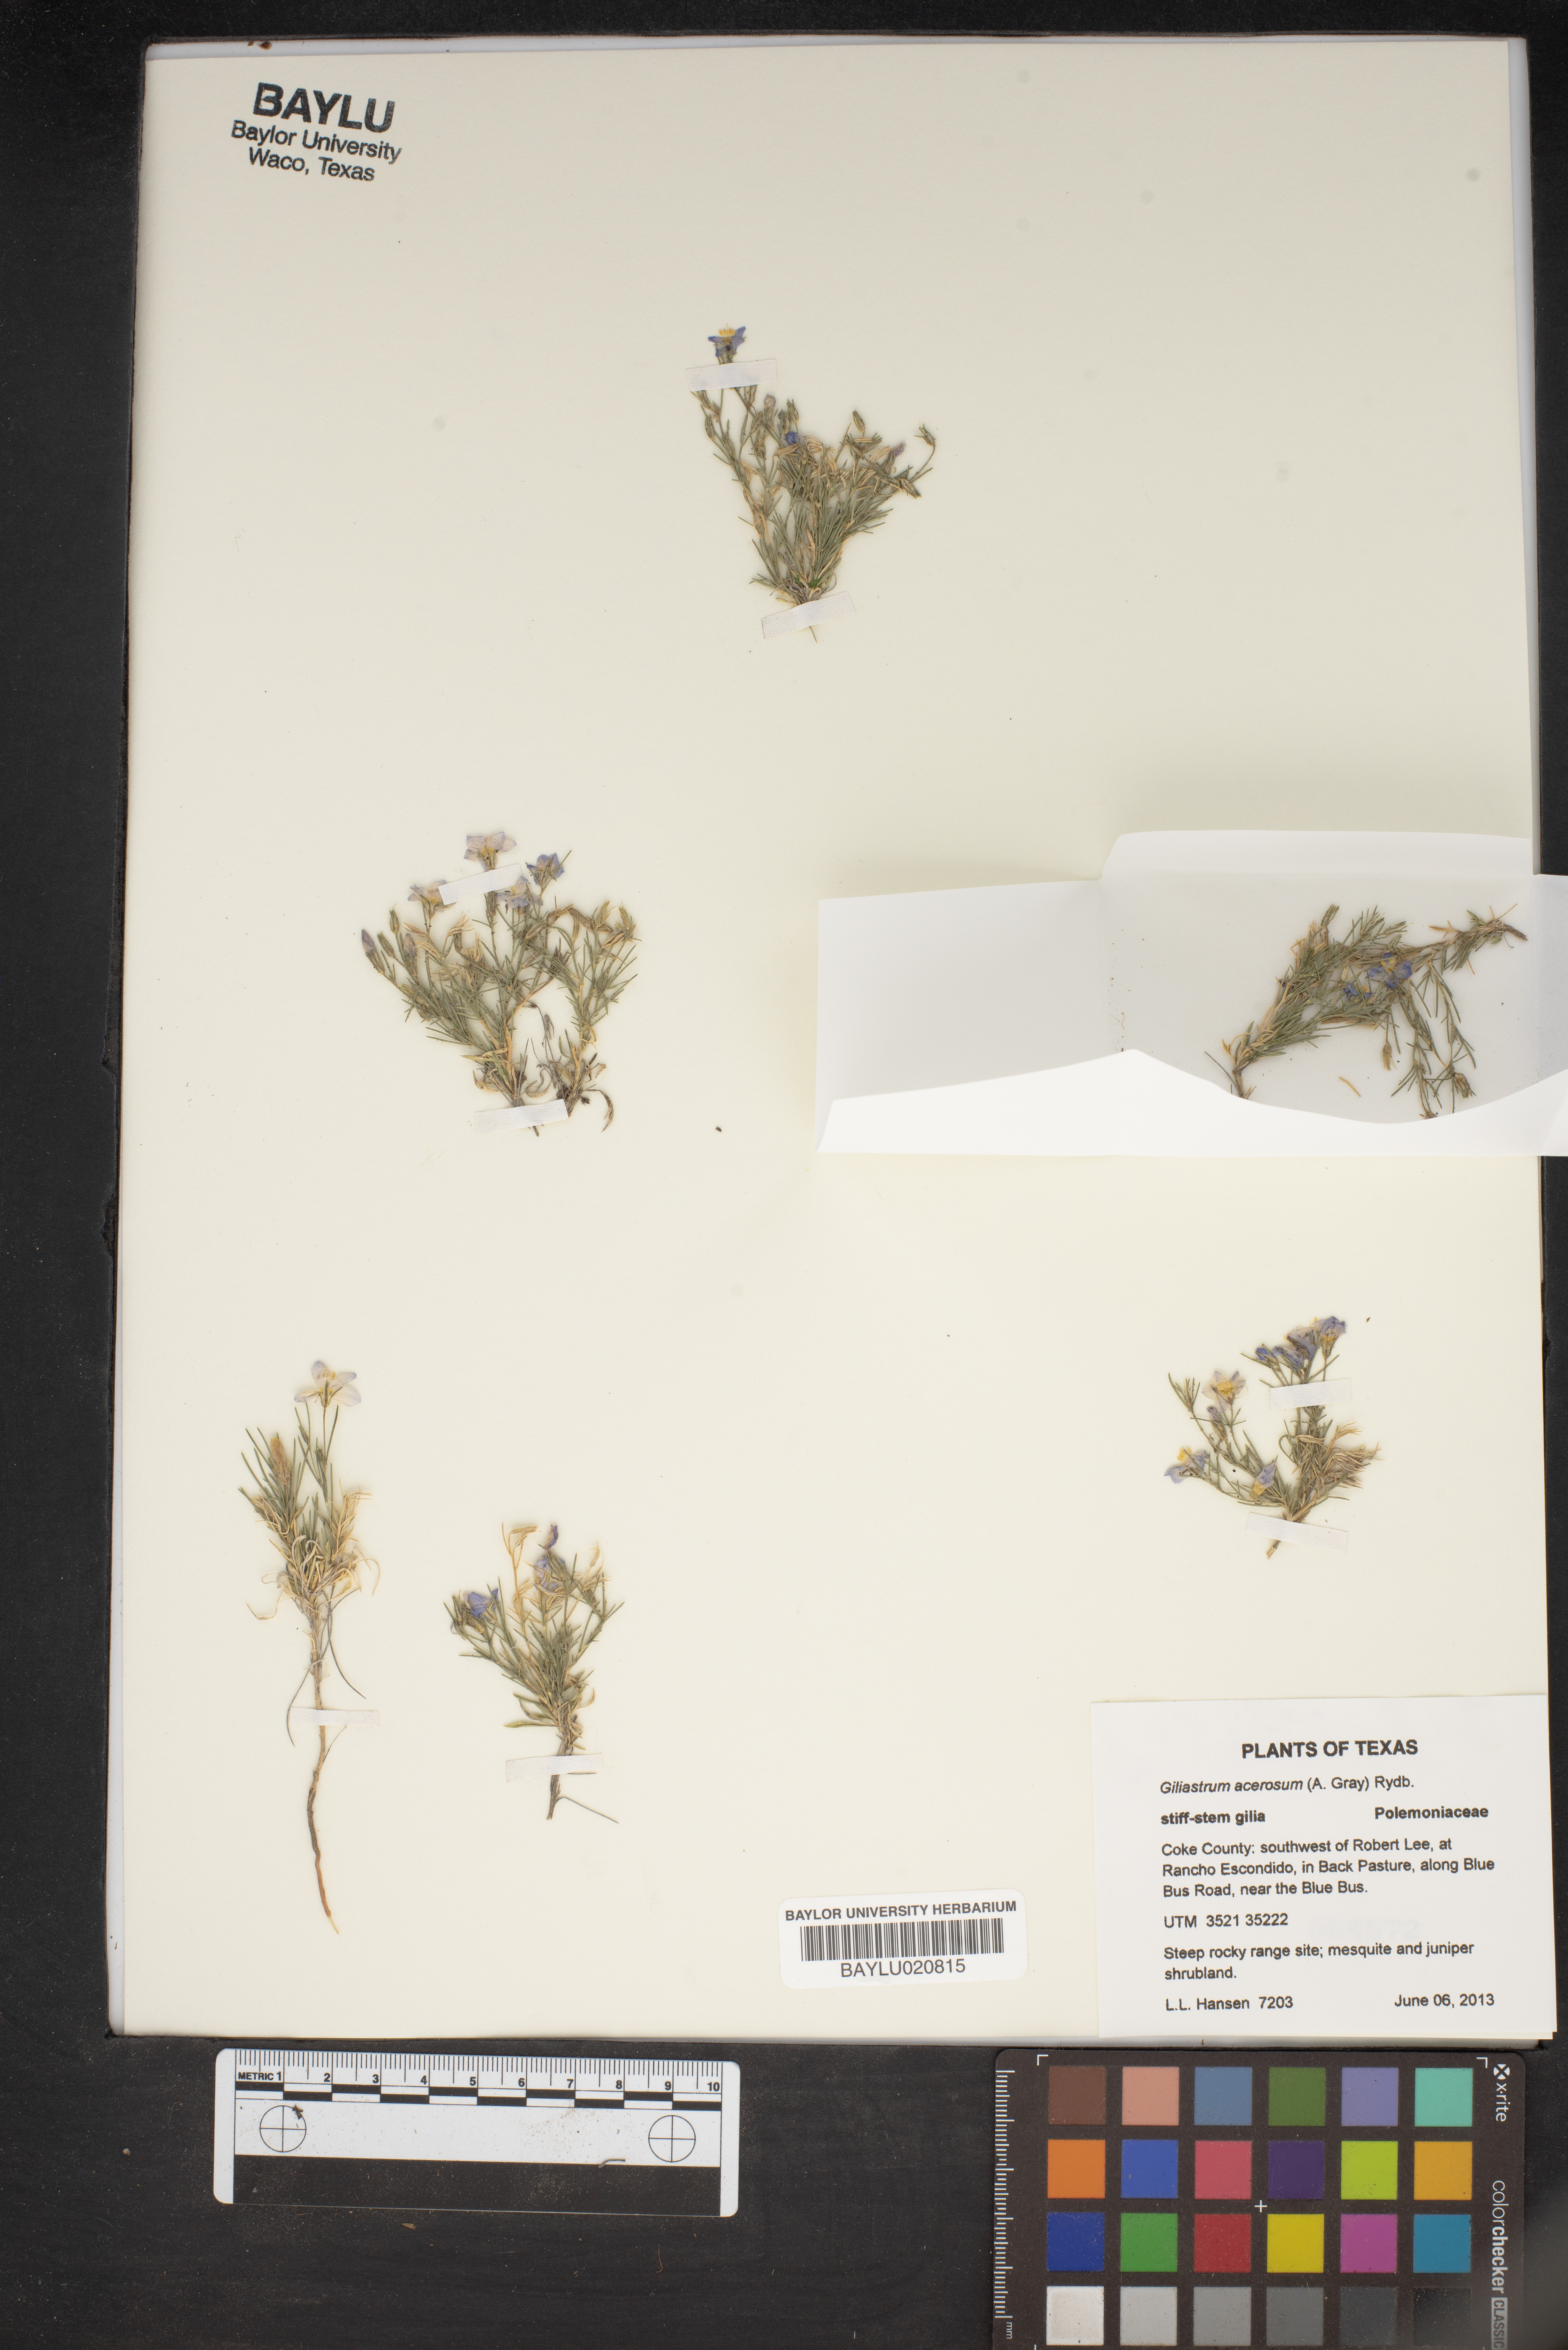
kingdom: Plantae
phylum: Tracheophyta
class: Magnoliopsida
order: Ericales
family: Polemoniaceae
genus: Giliastrum
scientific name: Giliastrum acerosum
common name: Bluebowls
